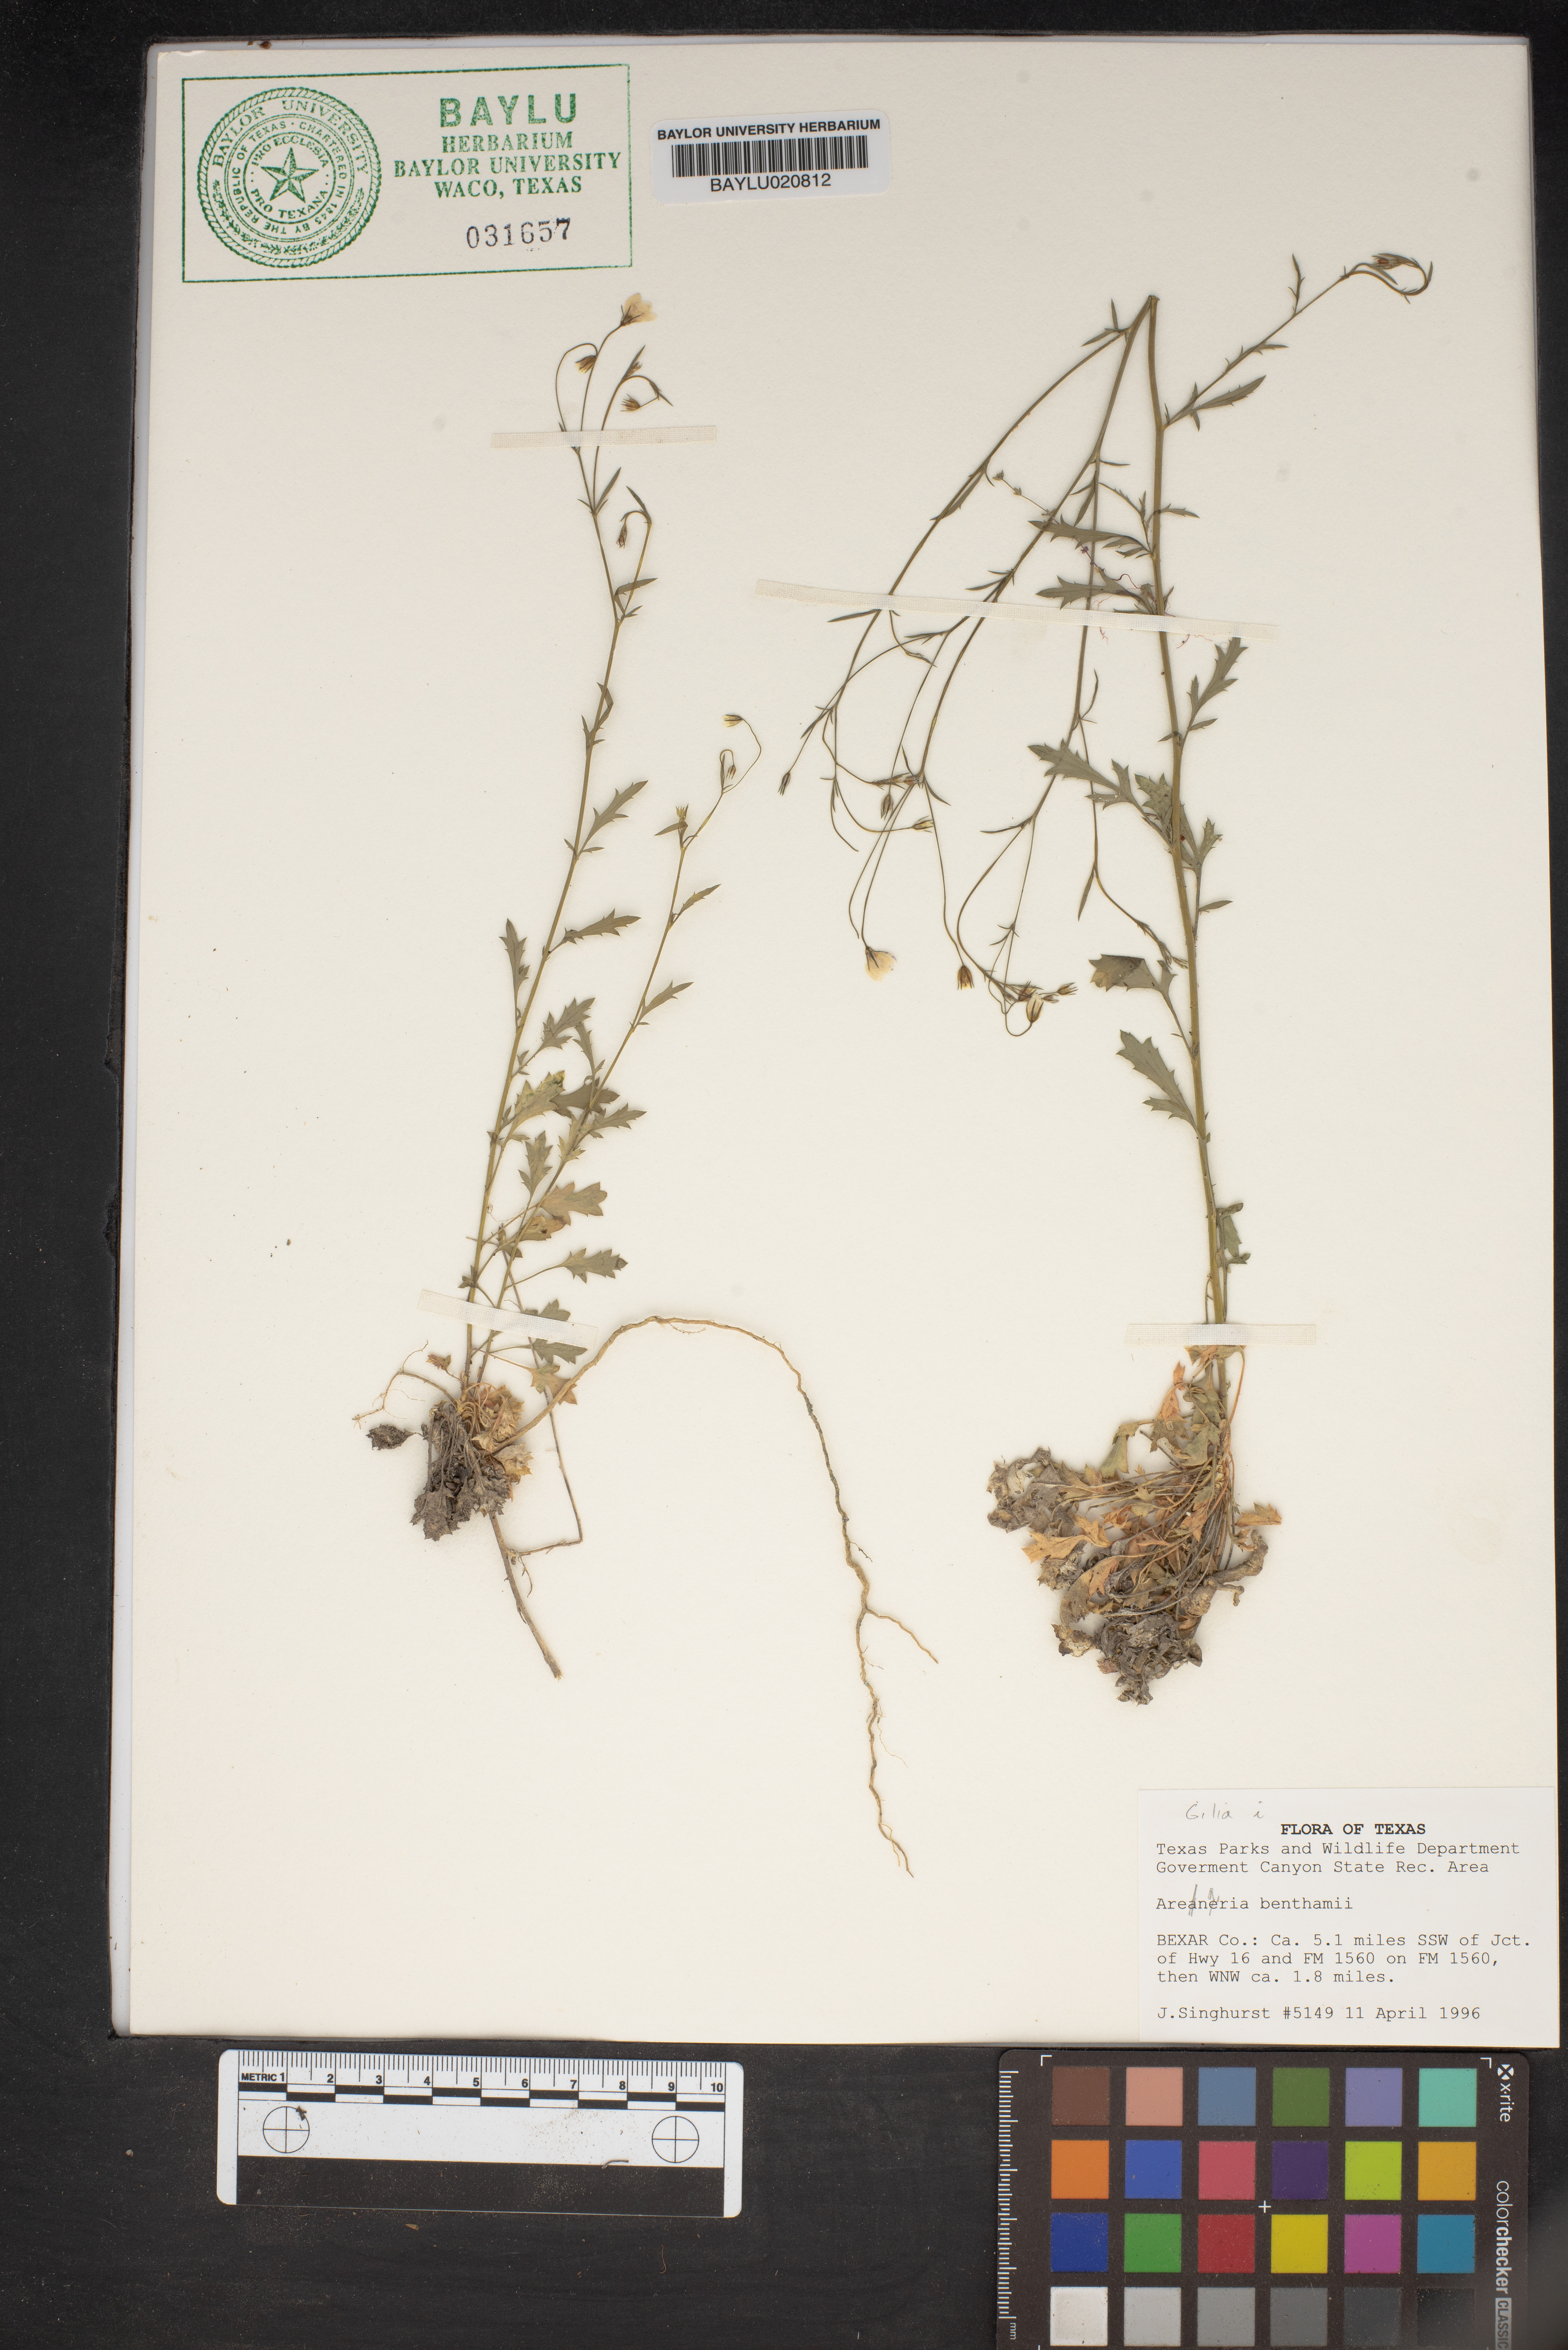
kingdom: Plantae
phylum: Tracheophyta
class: Magnoliopsida
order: Caryophyllales
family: Caryophyllaceae
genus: Arenaria
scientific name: Arenaria benthamii
